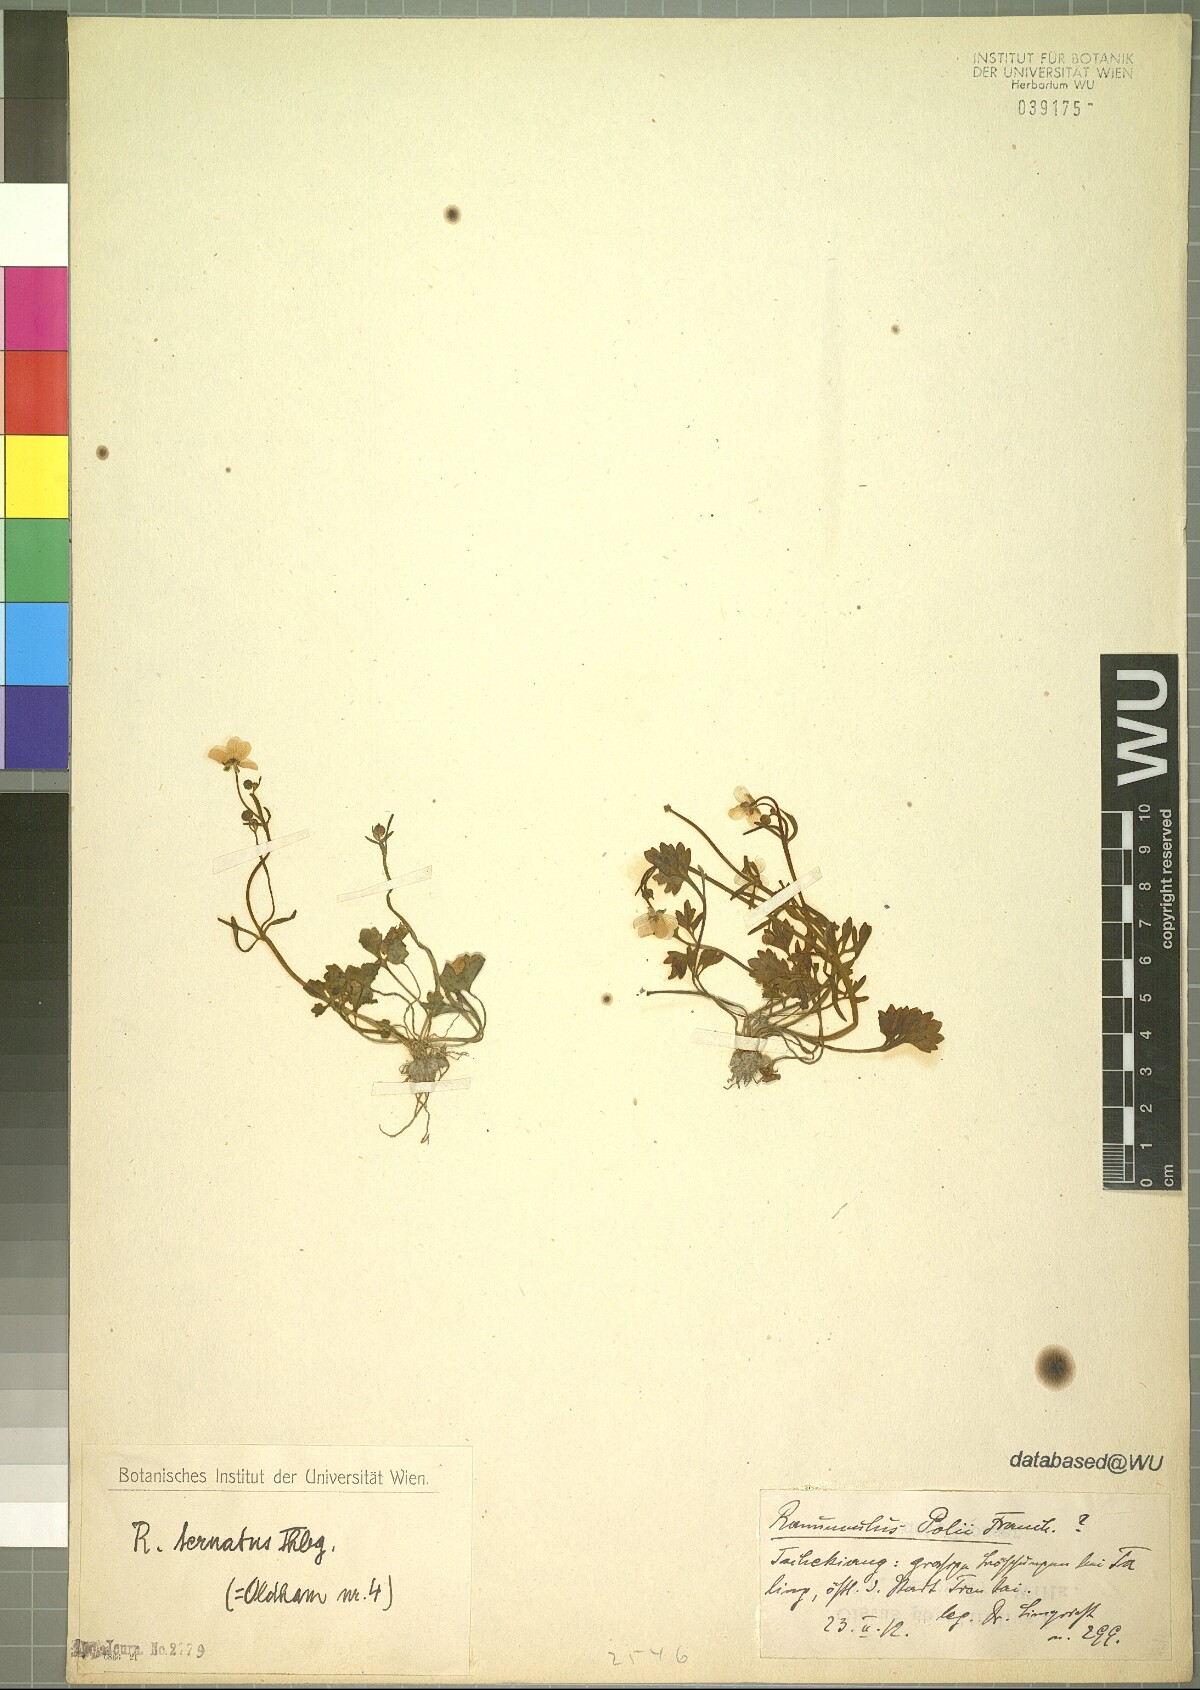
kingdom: Plantae
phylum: Tracheophyta
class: Magnoliopsida
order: Ranunculales
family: Ranunculaceae
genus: Ranunculus
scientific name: Ranunculus ternatus
